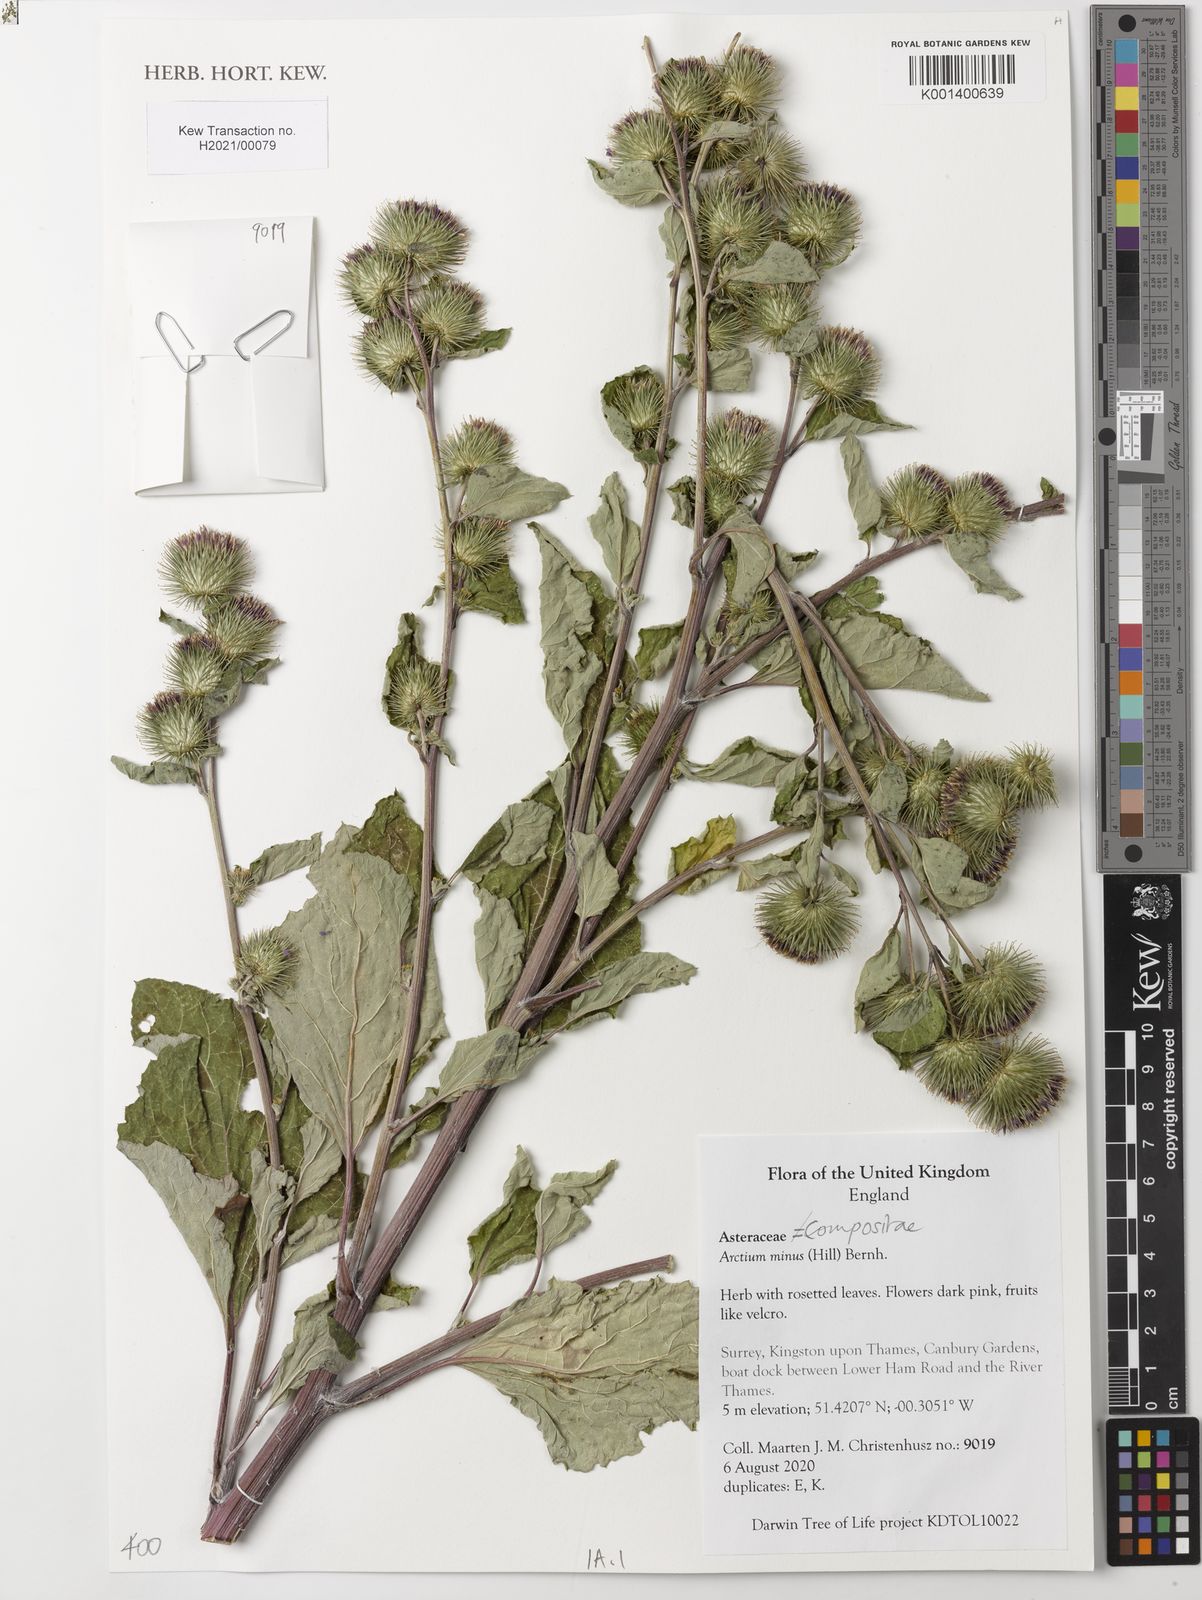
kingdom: Plantae
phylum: Tracheophyta
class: Magnoliopsida
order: Asterales
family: Asteraceae
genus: Arctium
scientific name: Arctium minus
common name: Lesser burdock
